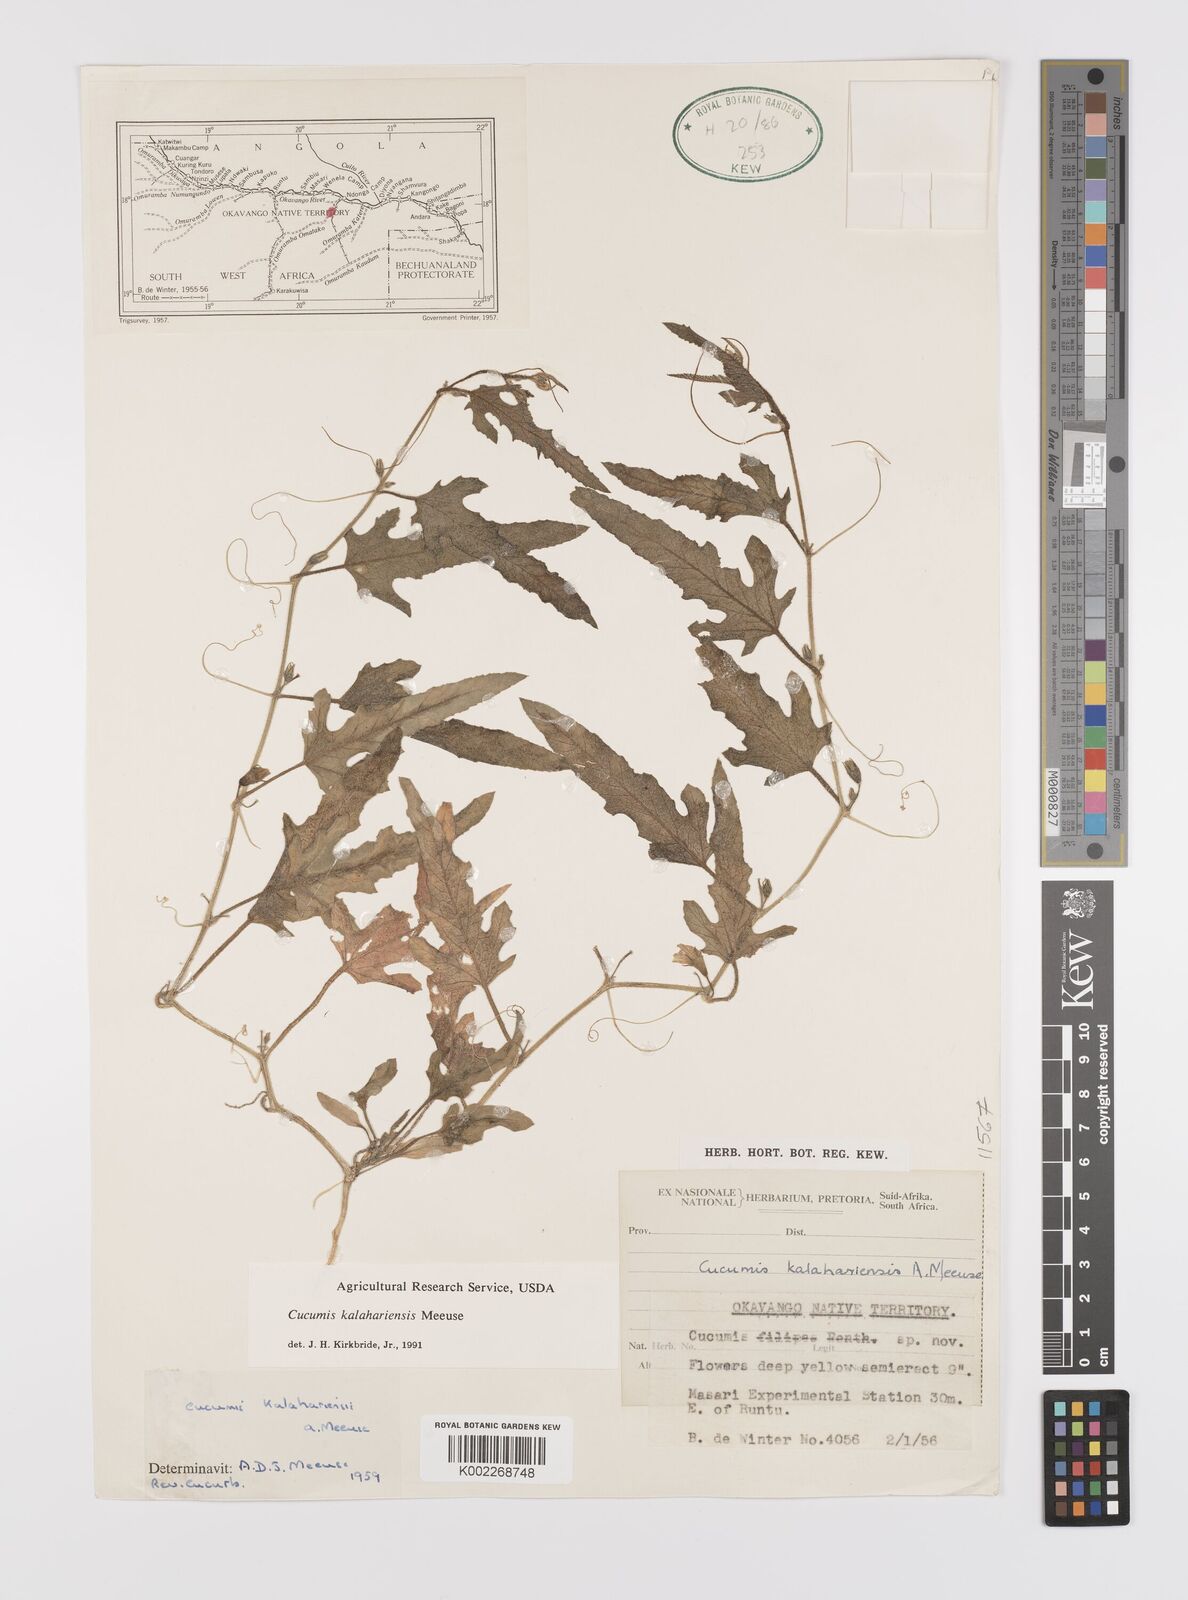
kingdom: Plantae
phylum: Tracheophyta
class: Magnoliopsida
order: Cucurbitales
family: Cucurbitaceae
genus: Cucumis
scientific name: Cucumis kalahariensis
